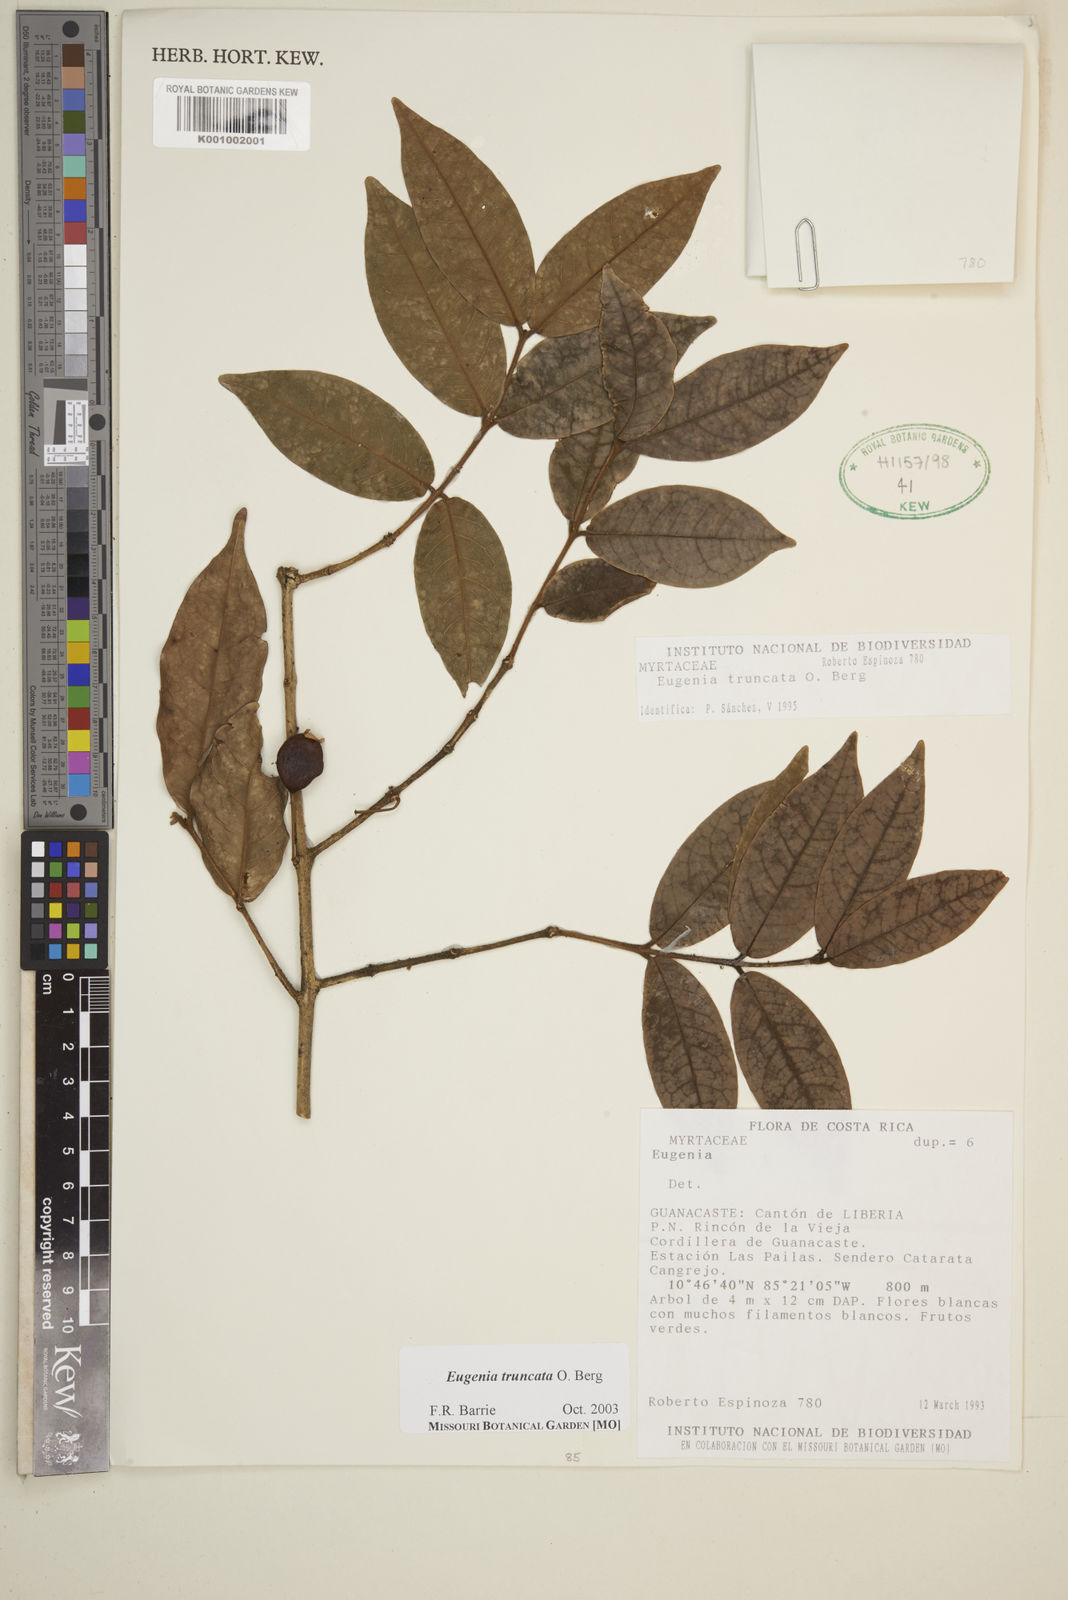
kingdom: Plantae
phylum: Tracheophyta
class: Magnoliopsida
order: Myrtales
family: Myrtaceae
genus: Eugenia
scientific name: Eugenia truncata
